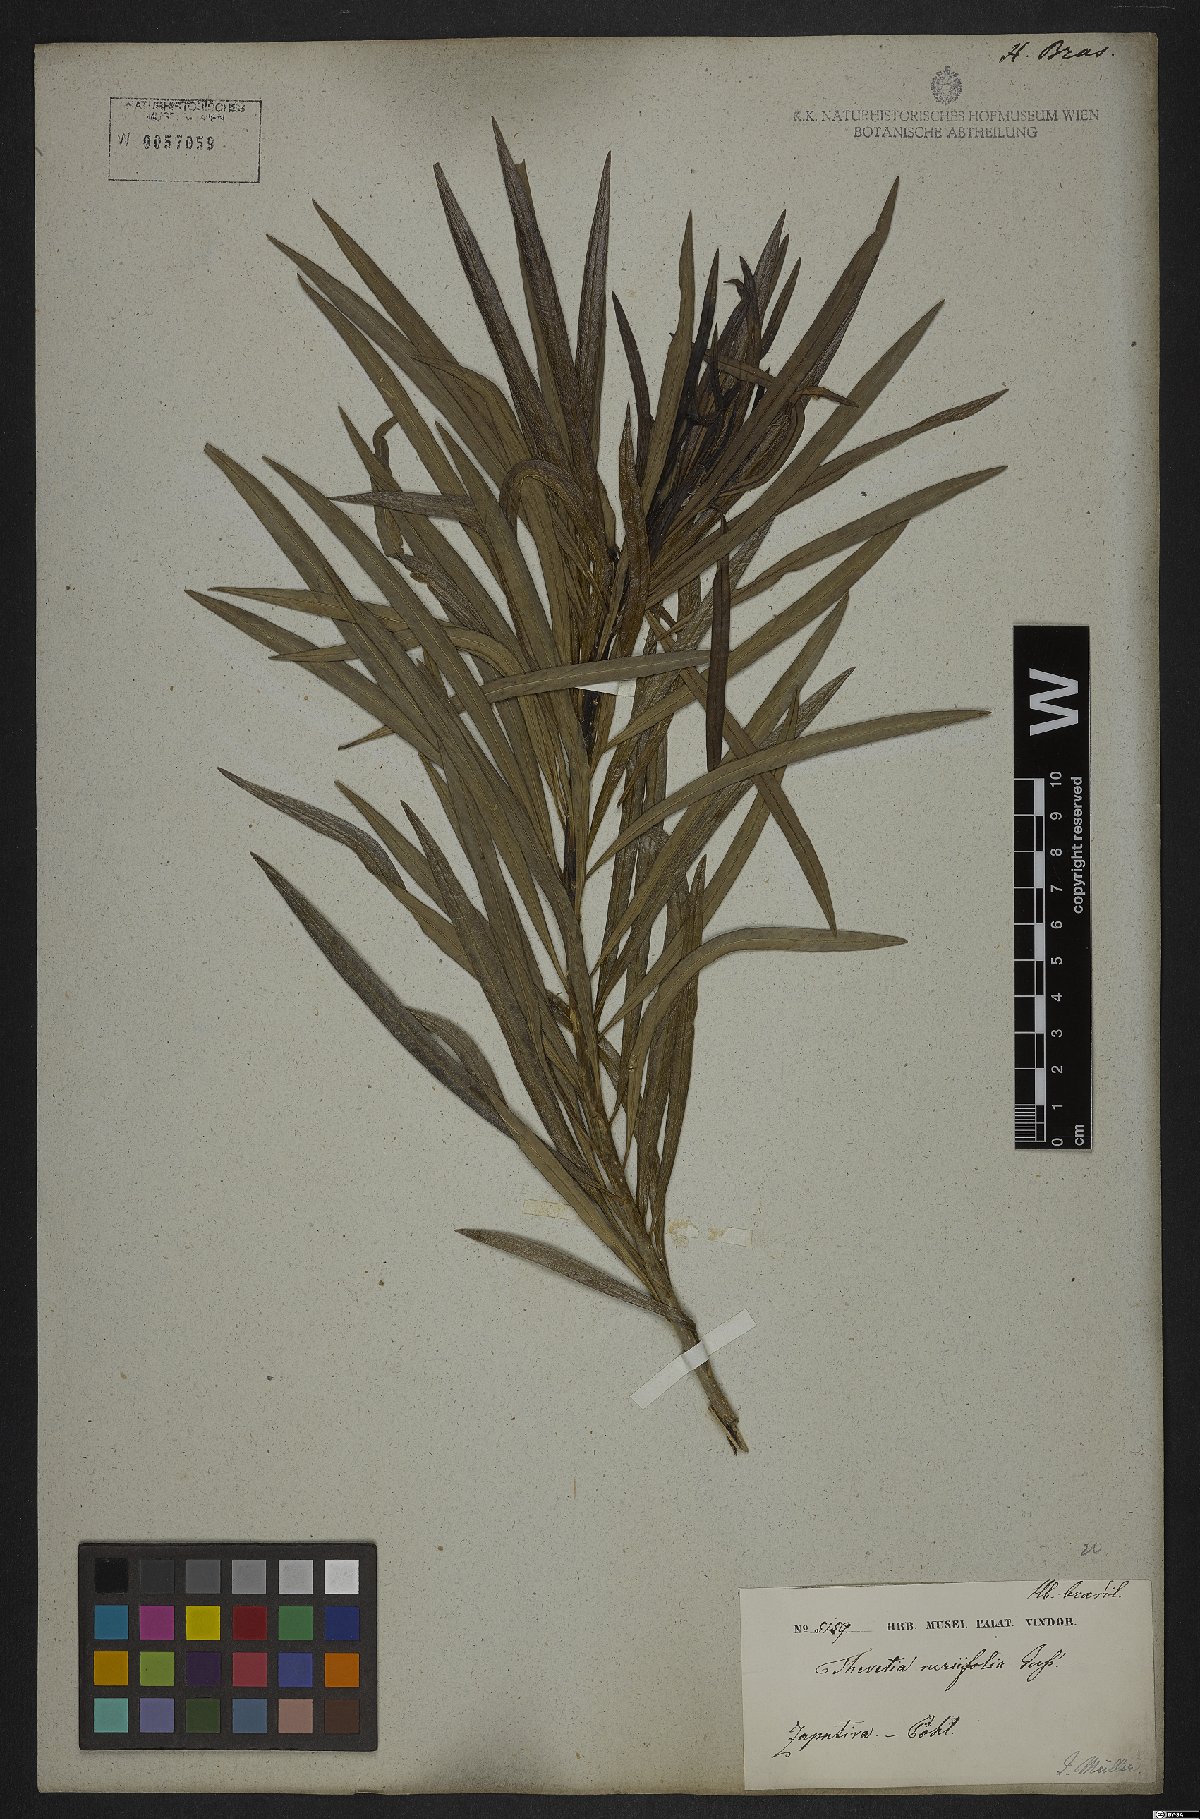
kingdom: Plantae
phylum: Tracheophyta
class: Magnoliopsida
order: Gentianales
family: Apocynaceae
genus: Cascabela
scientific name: Cascabela thevetia
